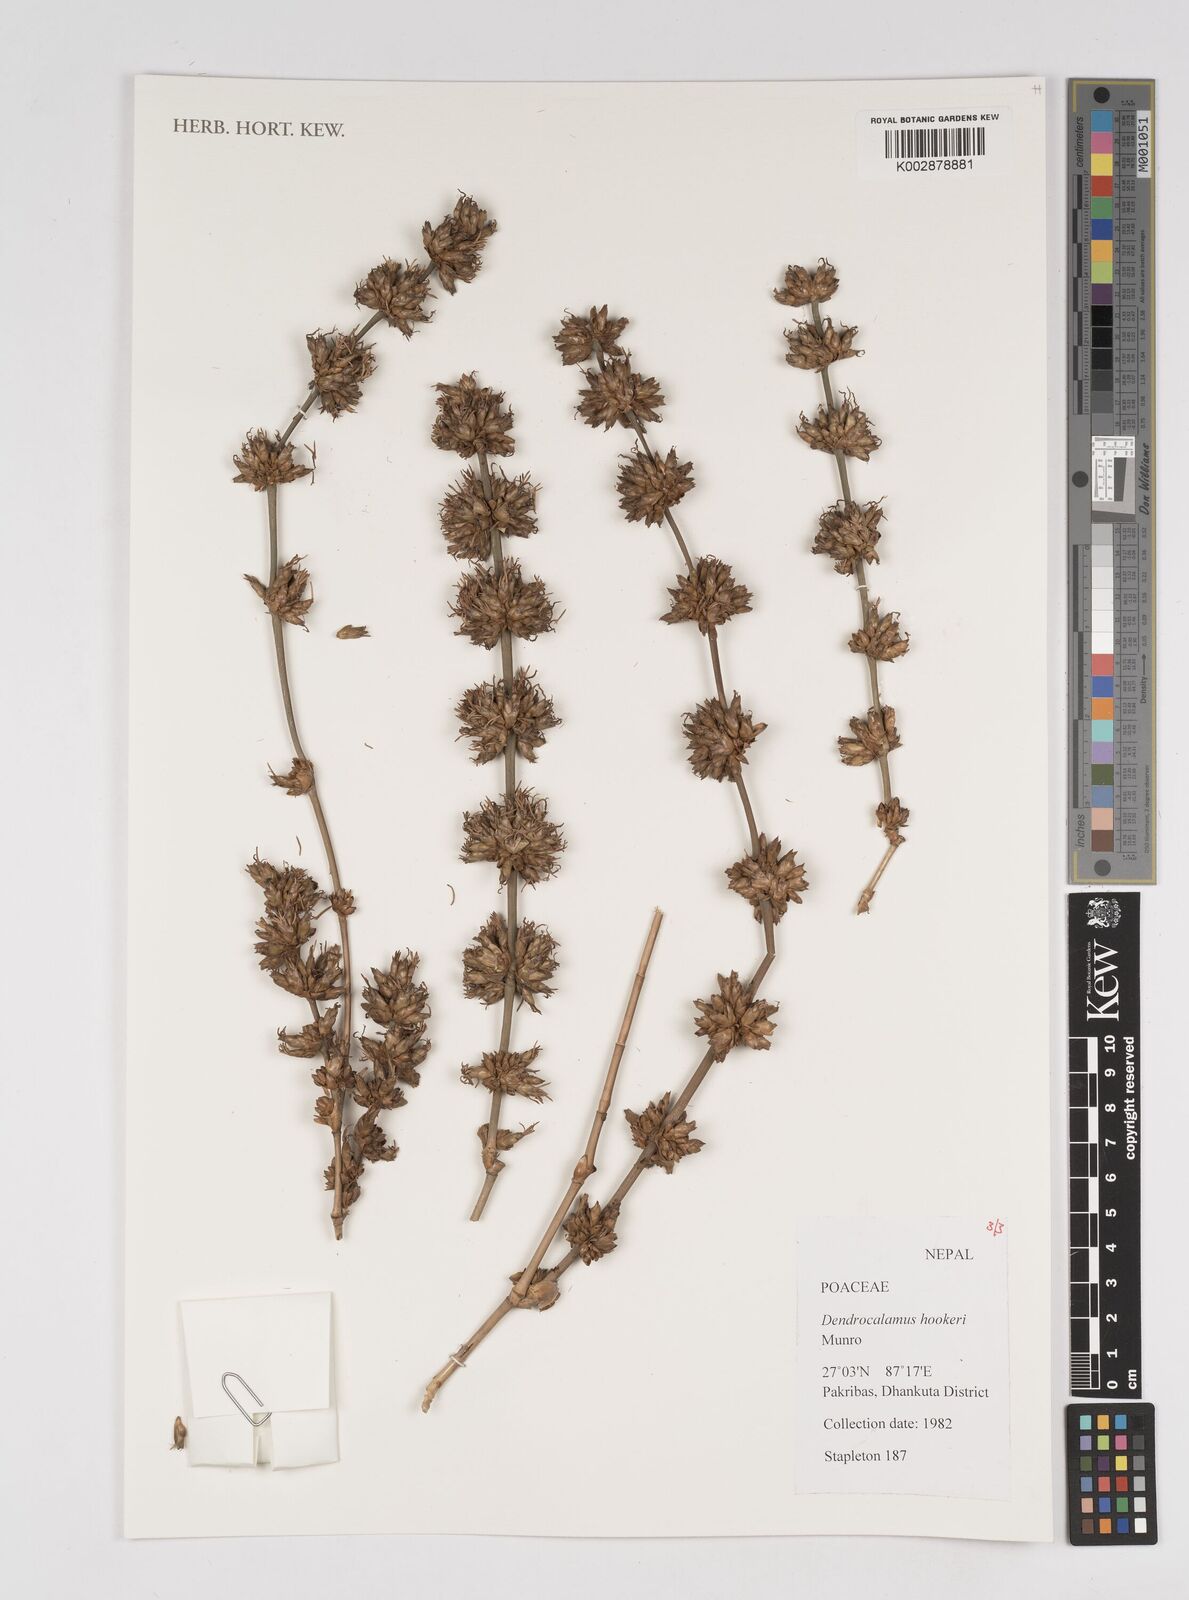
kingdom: Plantae
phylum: Tracheophyta
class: Liliopsida
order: Poales
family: Poaceae
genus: Dendrocalamus
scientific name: Dendrocalamus hookeri
